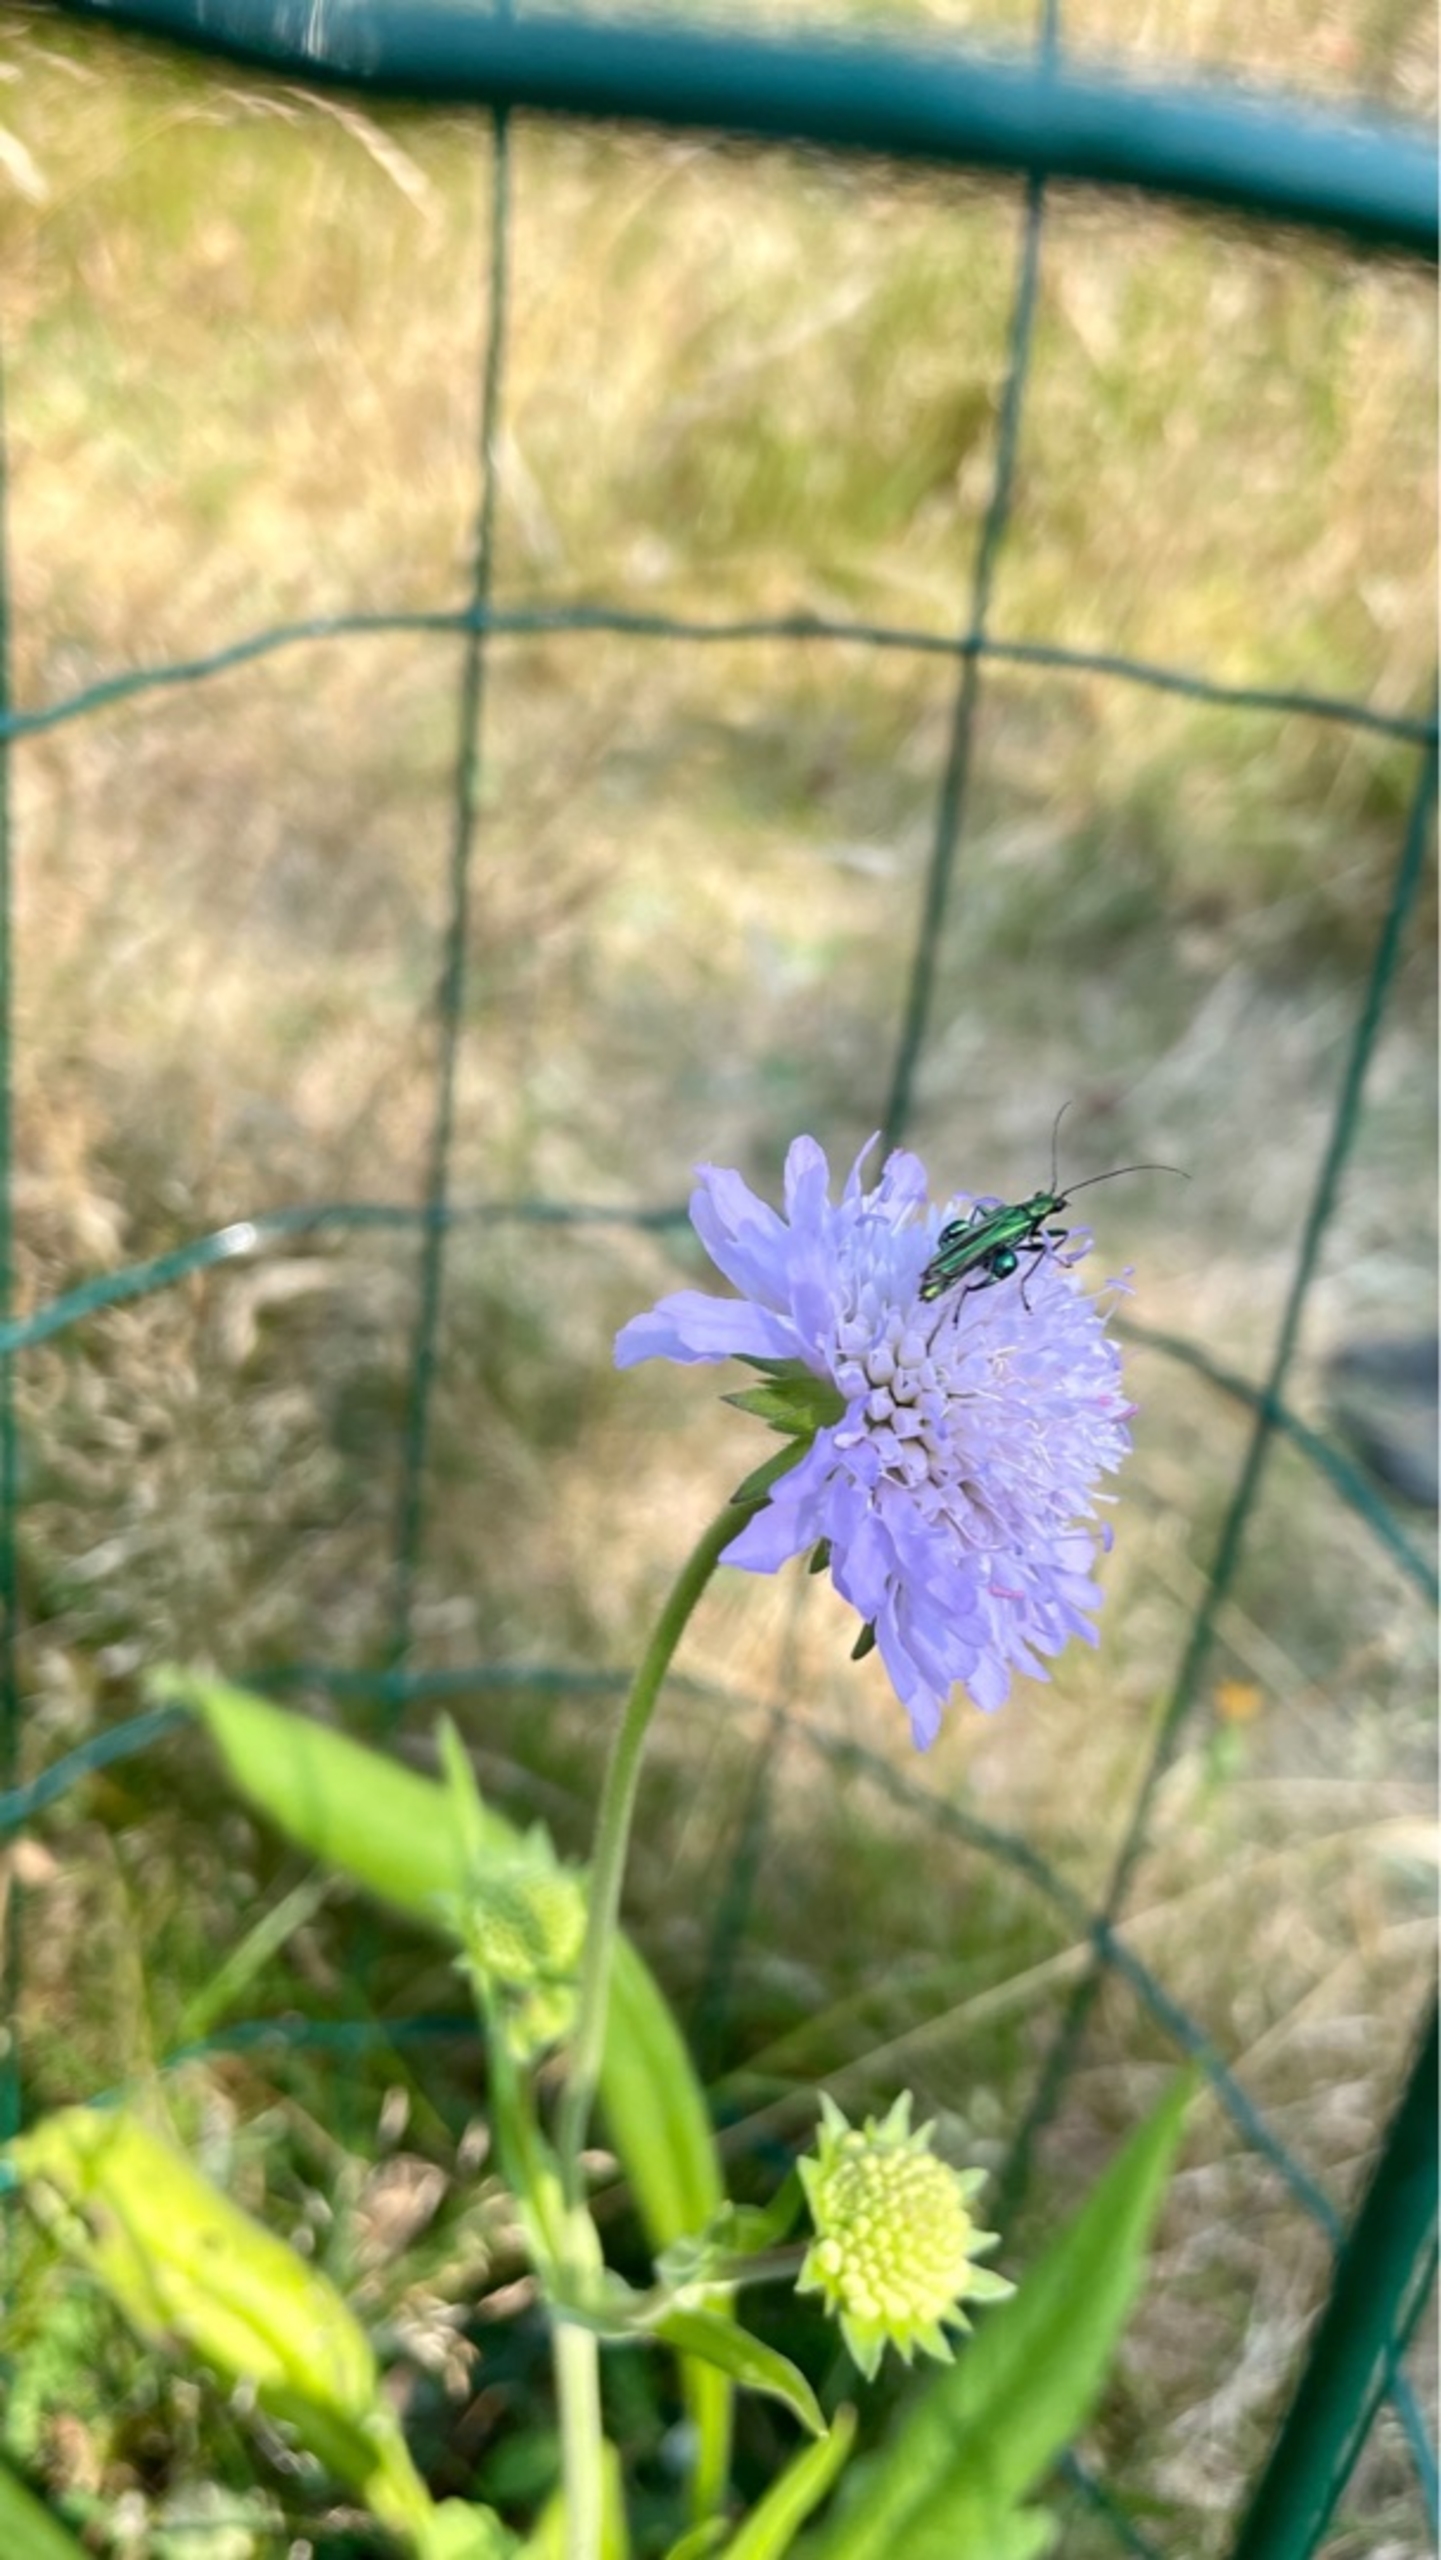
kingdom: Animalia
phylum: Arthropoda
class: Insecta
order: Coleoptera
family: Oedemeridae
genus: Oedemera
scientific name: Oedemera nobilis
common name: Tyklårssolbille
